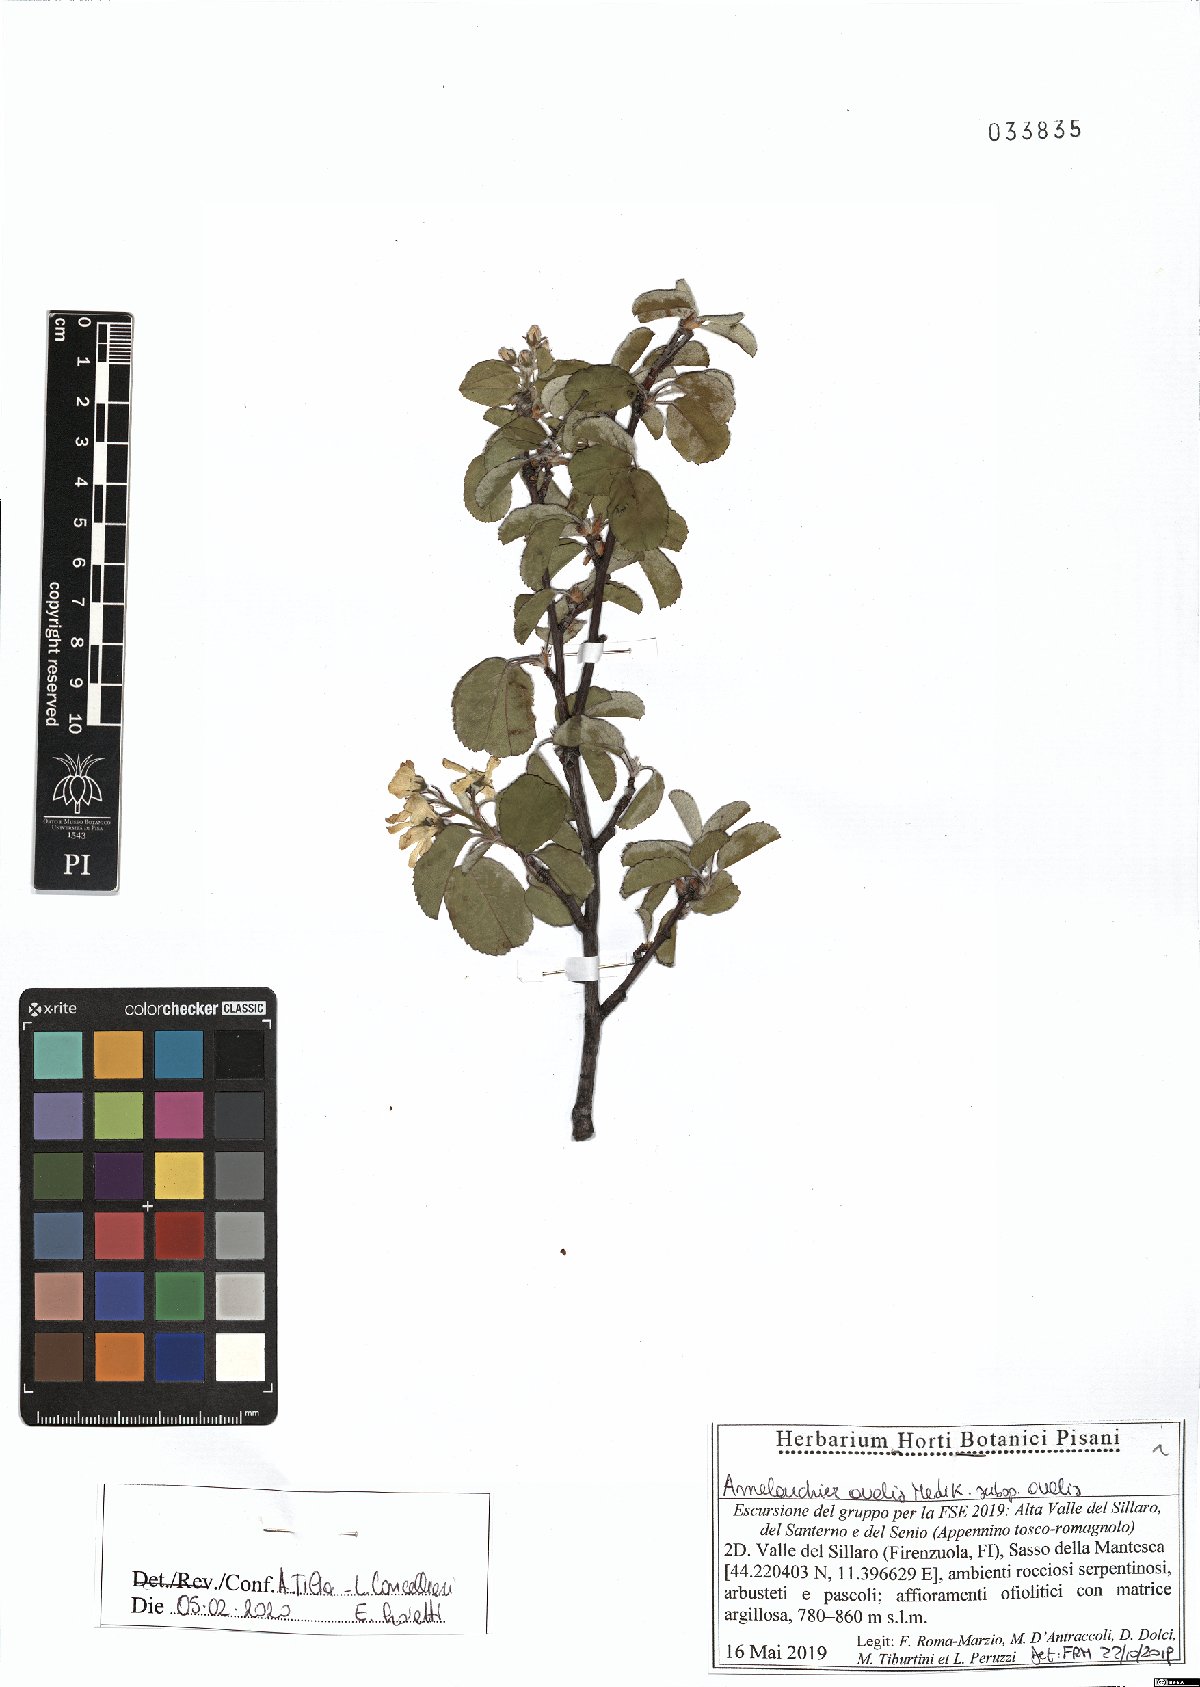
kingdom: Plantae
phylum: Tracheophyta
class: Magnoliopsida
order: Rosales
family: Rosaceae
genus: Amelanchier
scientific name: Amelanchier ovalis
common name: Serviceberry
